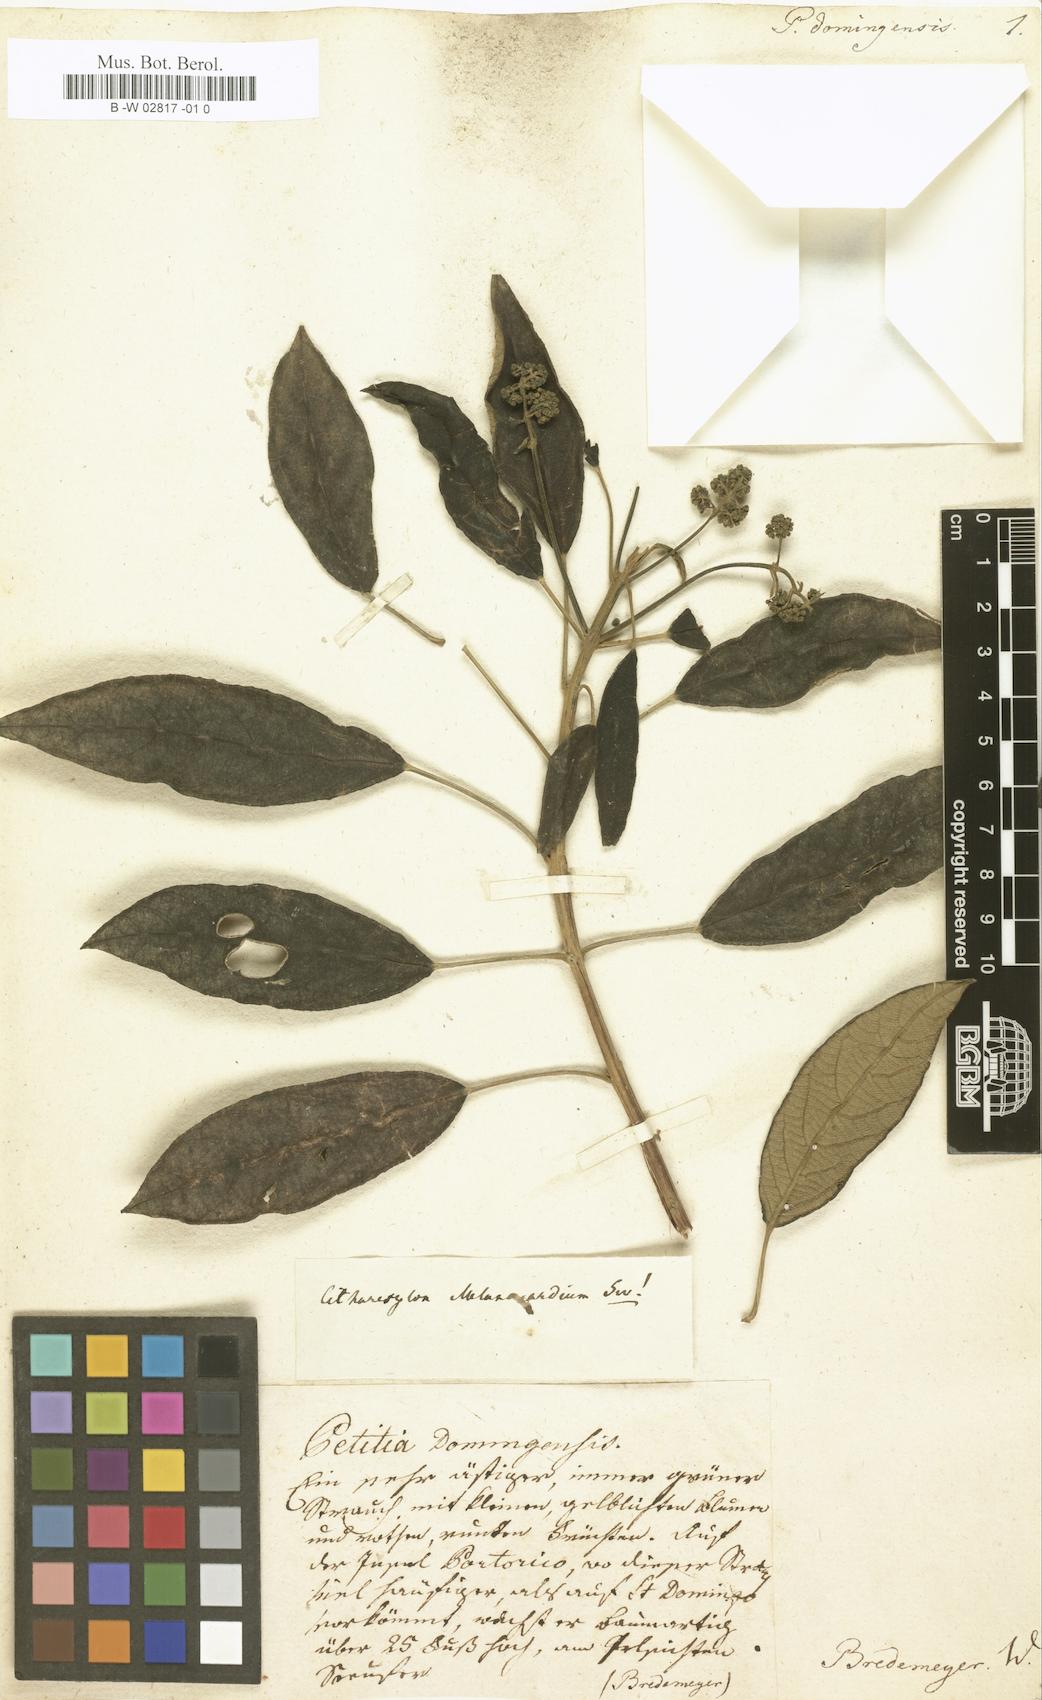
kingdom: Plantae
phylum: Tracheophyta
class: Magnoliopsida
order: Lamiales
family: Lamiaceae
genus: Petitia
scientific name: Petitia domingensis
